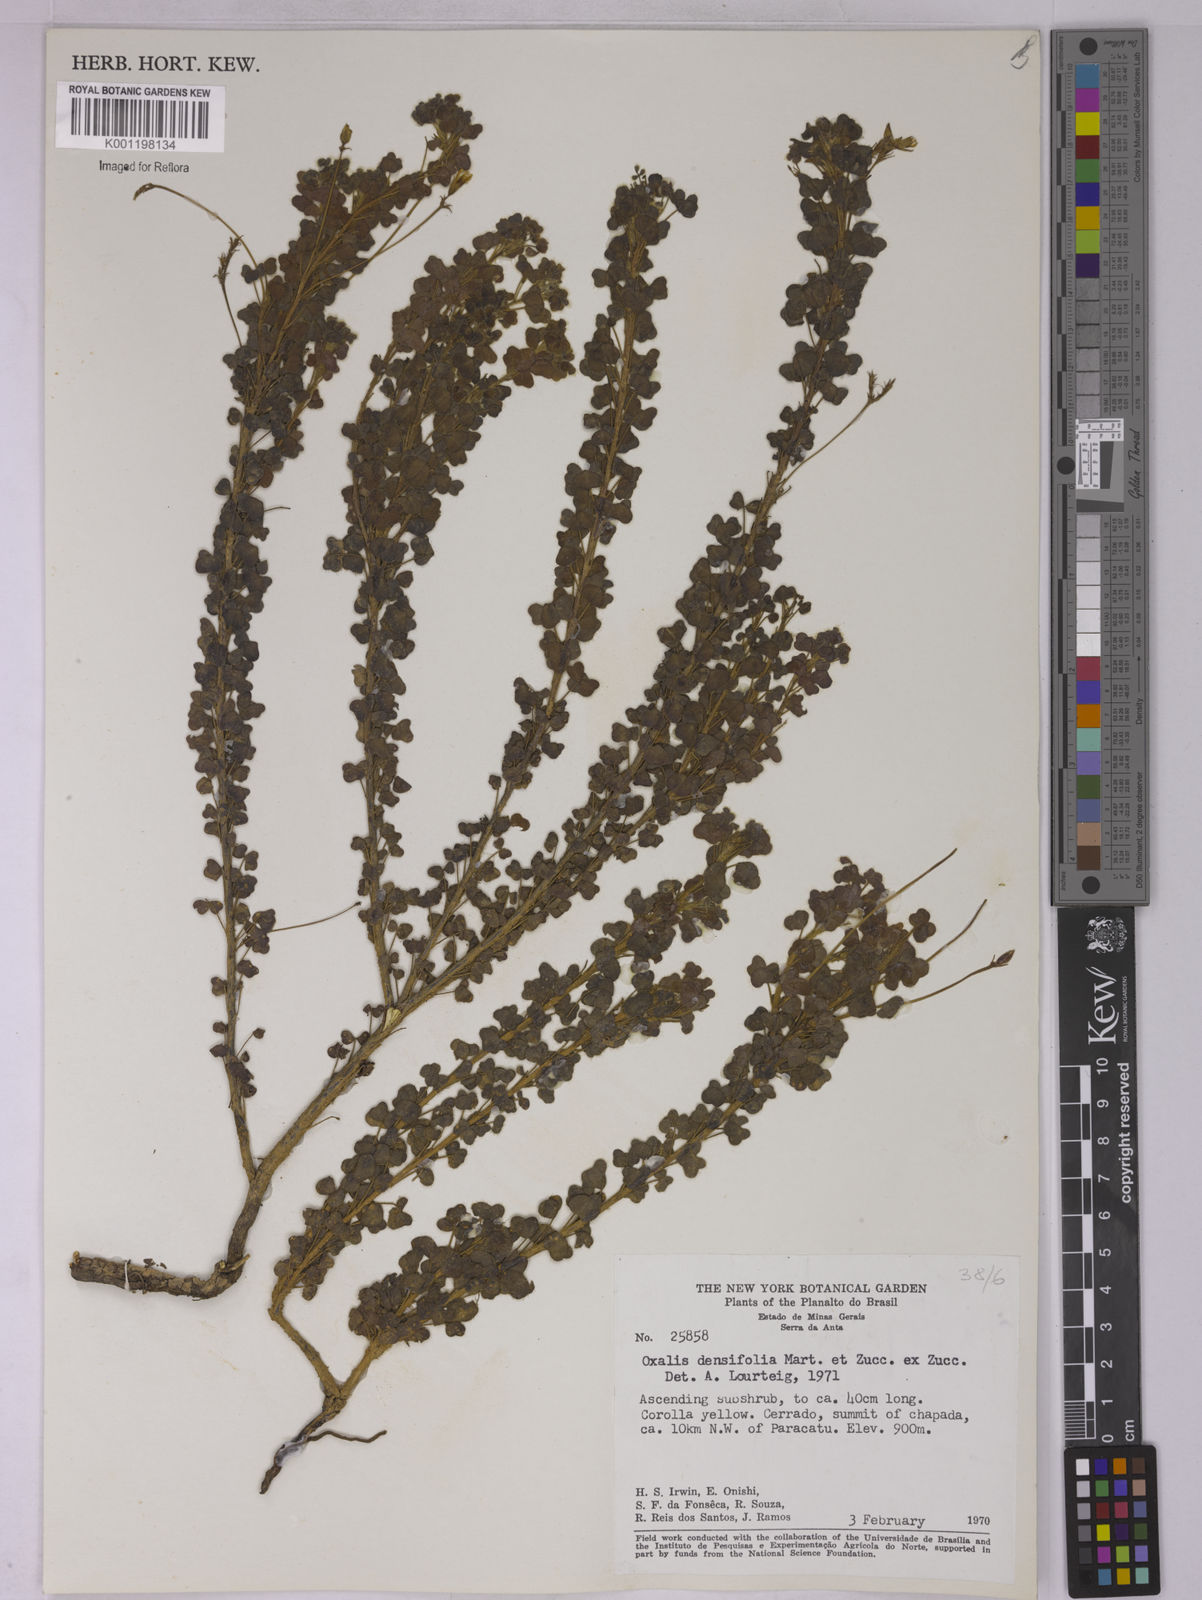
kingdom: Plantae
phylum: Tracheophyta
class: Magnoliopsida
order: Oxalidales
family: Oxalidaceae
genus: Oxalis
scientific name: Oxalis densifolia
